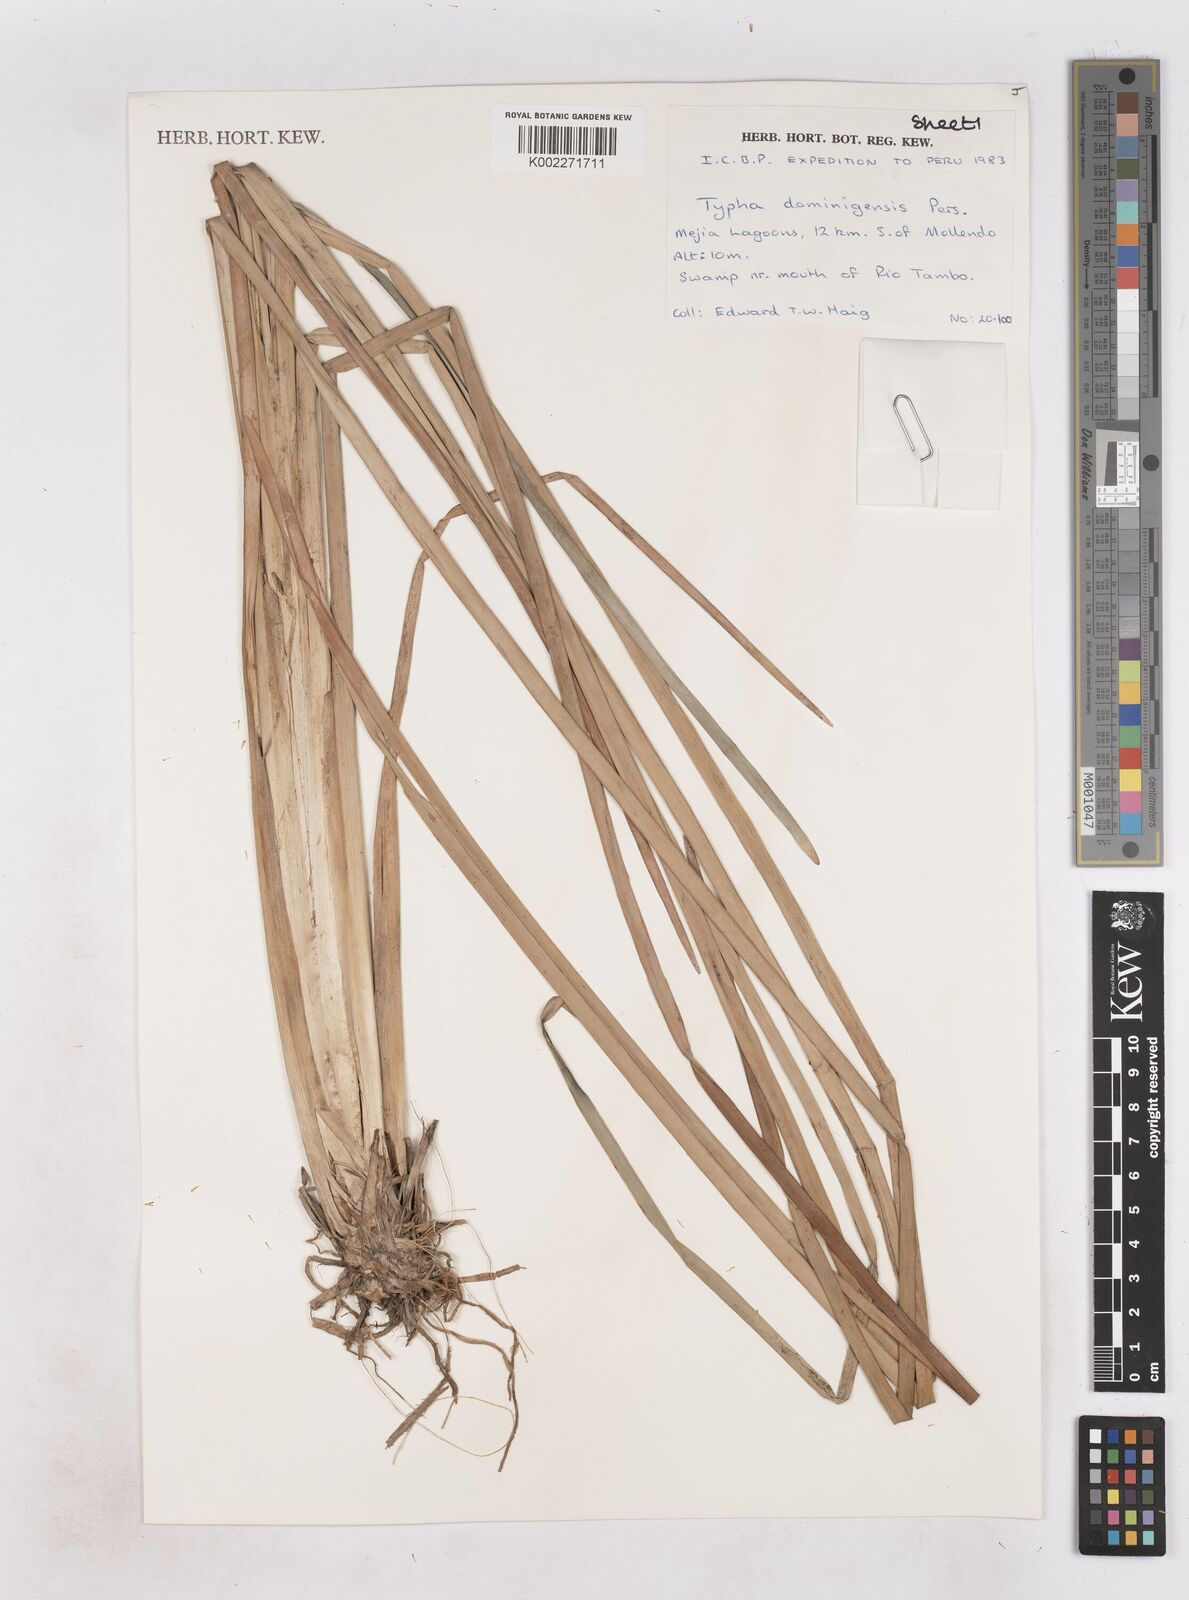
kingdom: Plantae
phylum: Tracheophyta
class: Liliopsida
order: Poales
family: Typhaceae
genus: Typha
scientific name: Typha domingensis
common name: Southern cattail
